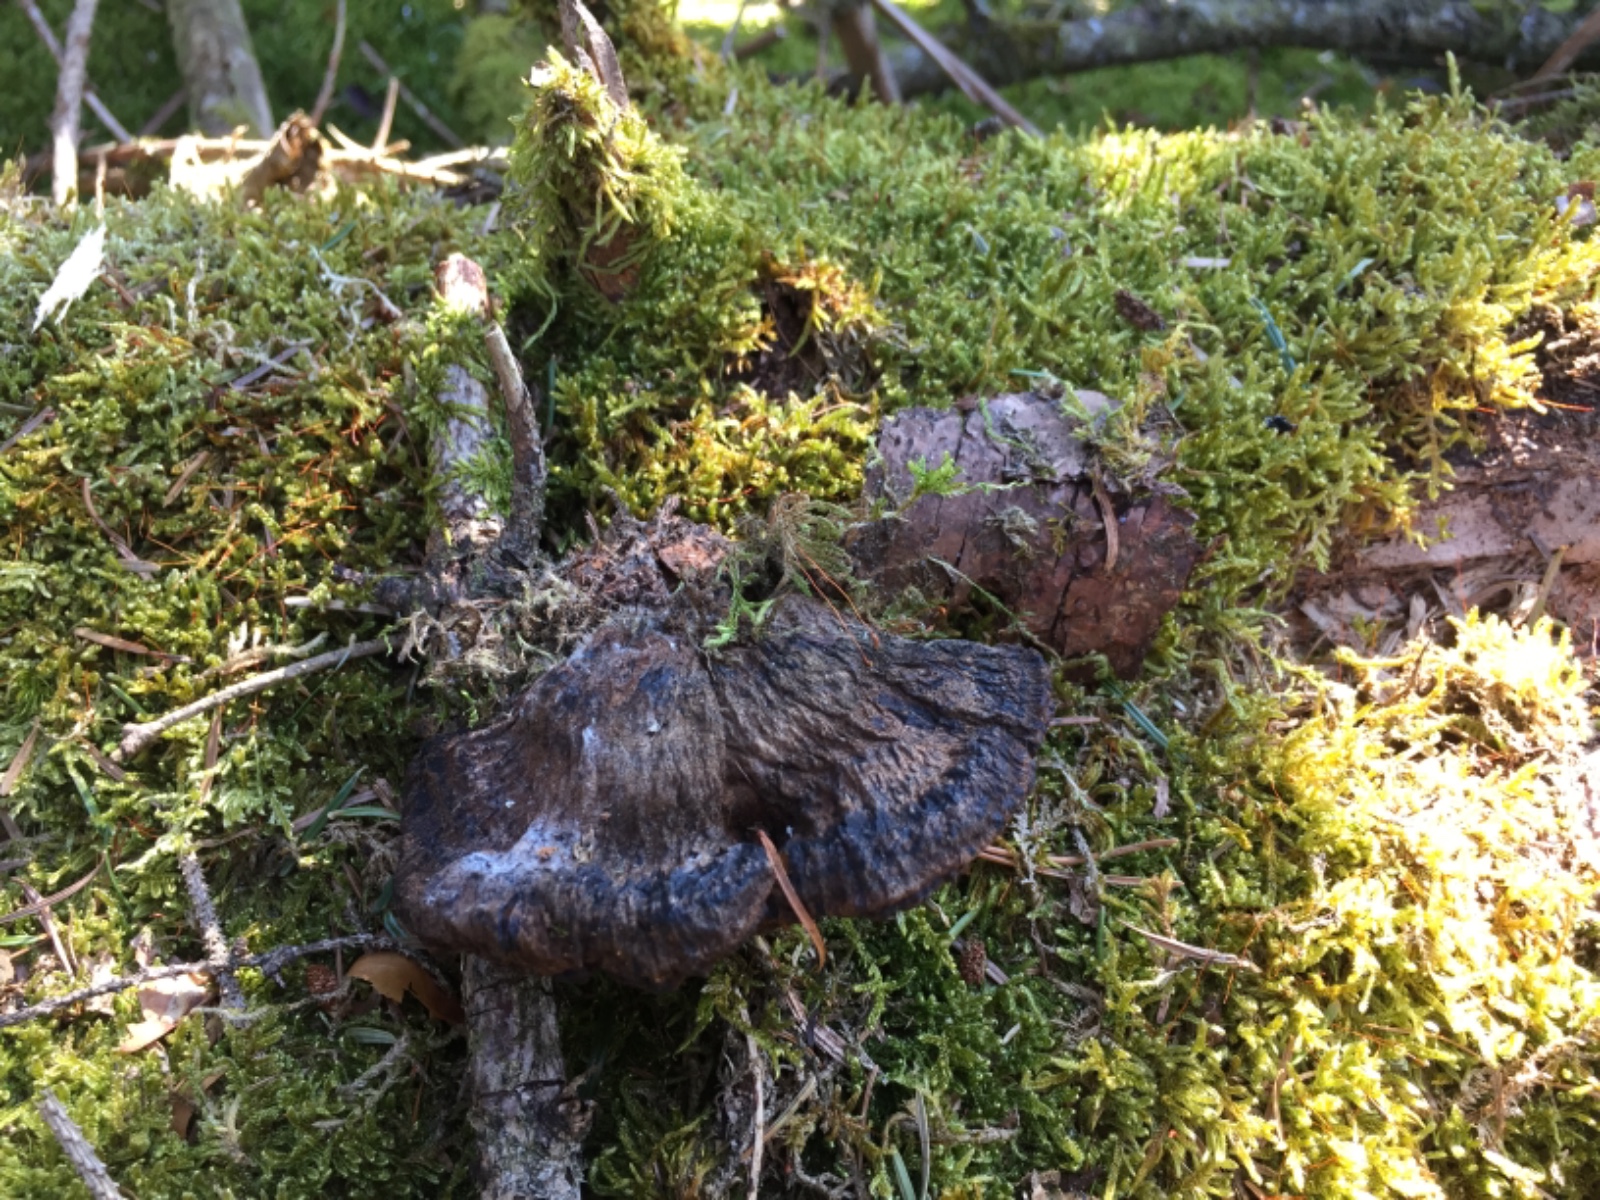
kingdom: Fungi
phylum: Basidiomycota
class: Agaricomycetes
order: Polyporales
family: Ischnodermataceae
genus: Ischnoderma
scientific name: Ischnoderma benzoinum
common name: gran-tjæreporesvamp
